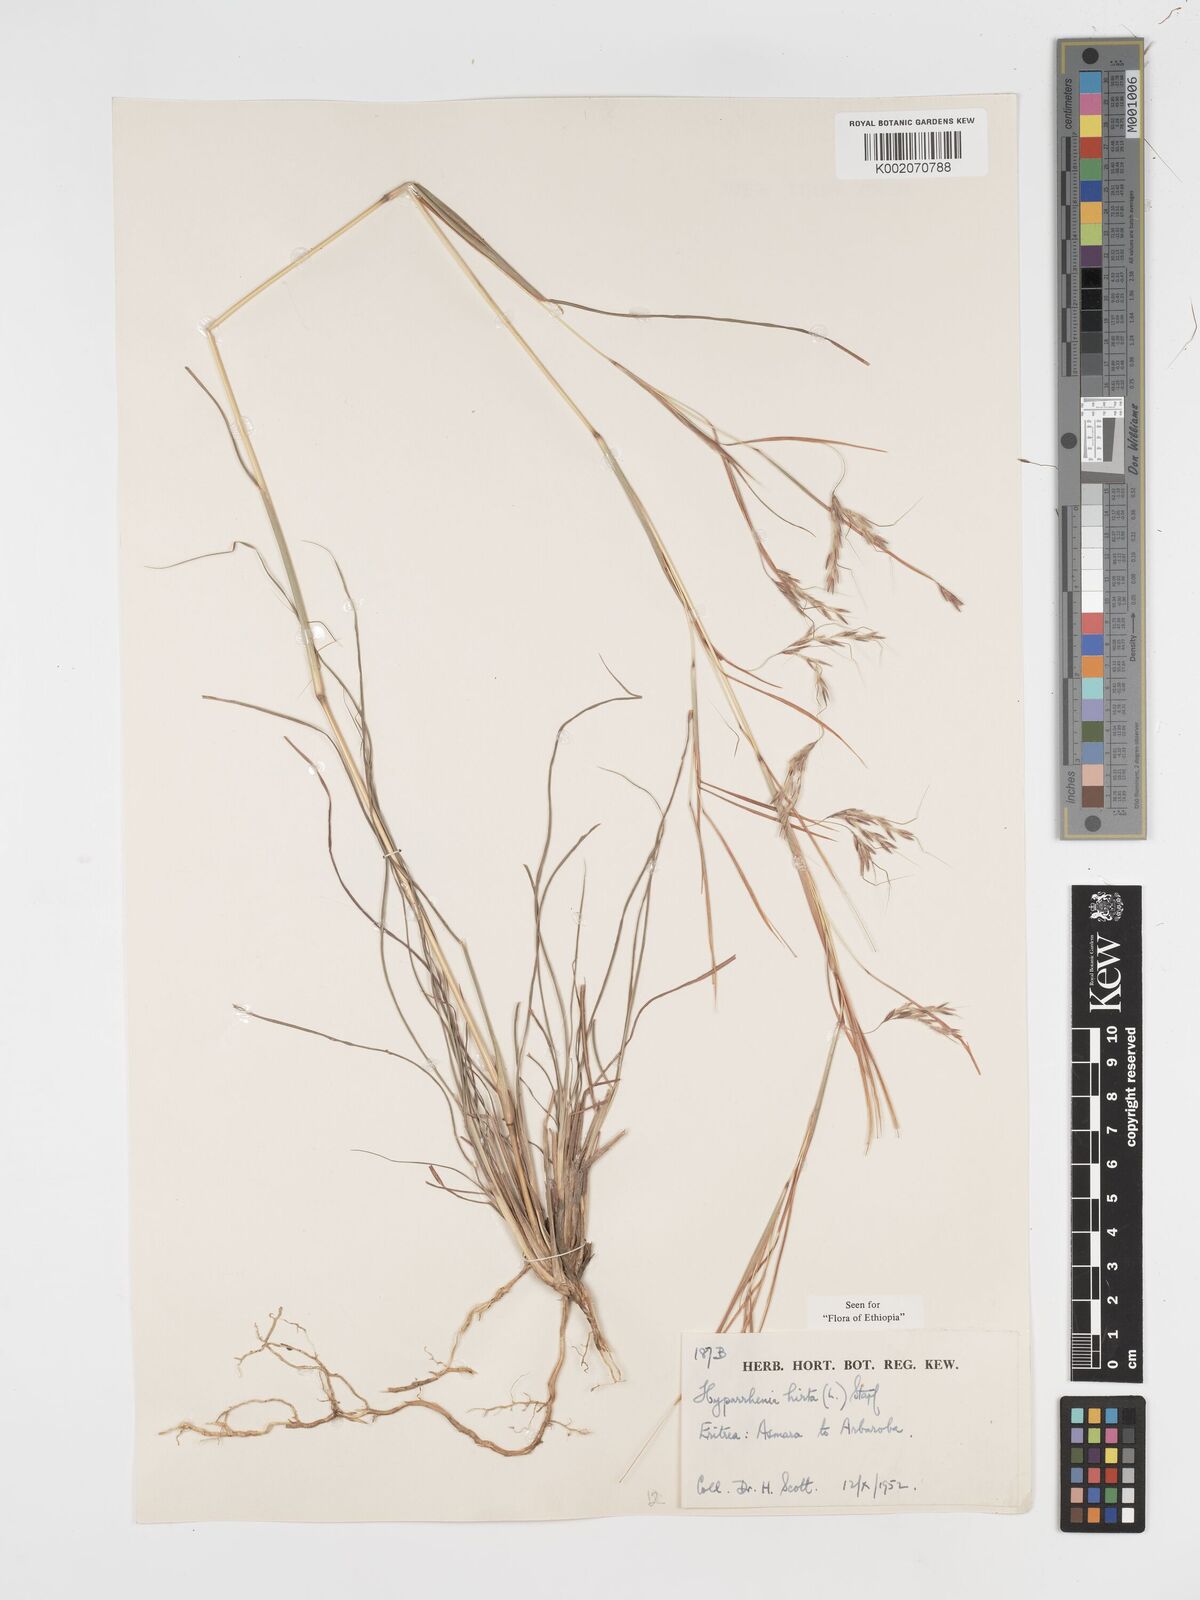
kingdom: Plantae
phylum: Tracheophyta
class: Liliopsida
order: Poales
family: Poaceae
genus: Hyparrhenia
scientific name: Hyparrhenia hirta
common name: Thatching grass
